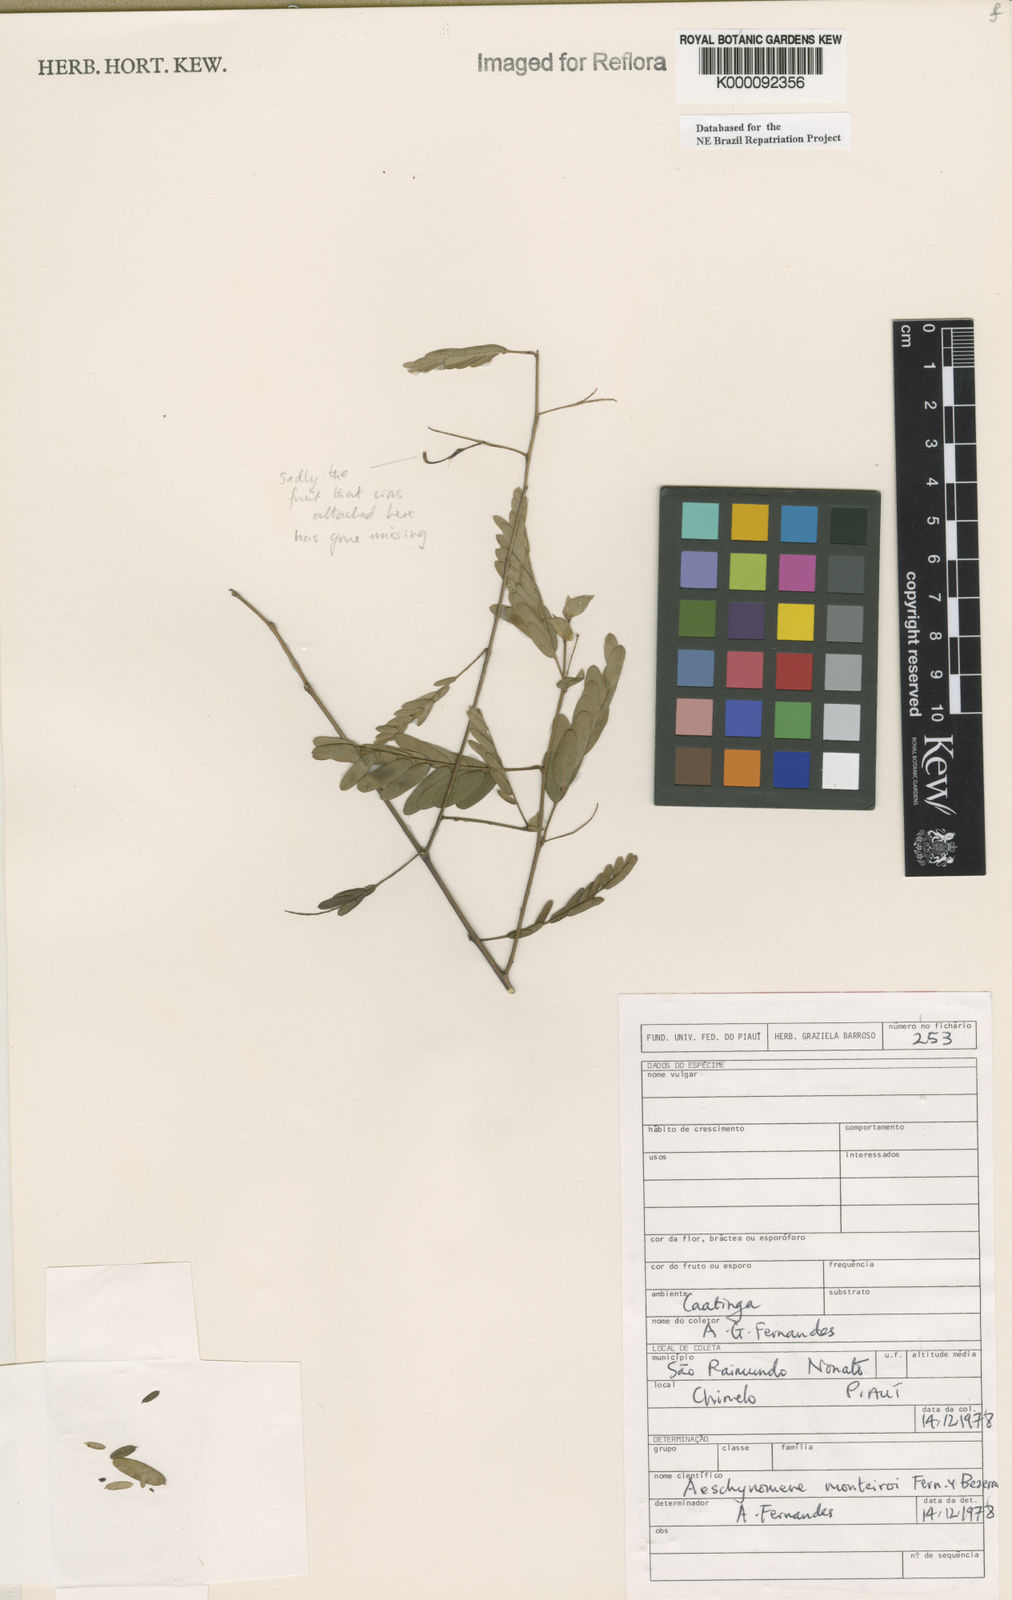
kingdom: Plantae
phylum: Tracheophyta
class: Magnoliopsida
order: Fabales
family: Fabaceae
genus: Ctenodon
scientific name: Ctenodon monteiroi
